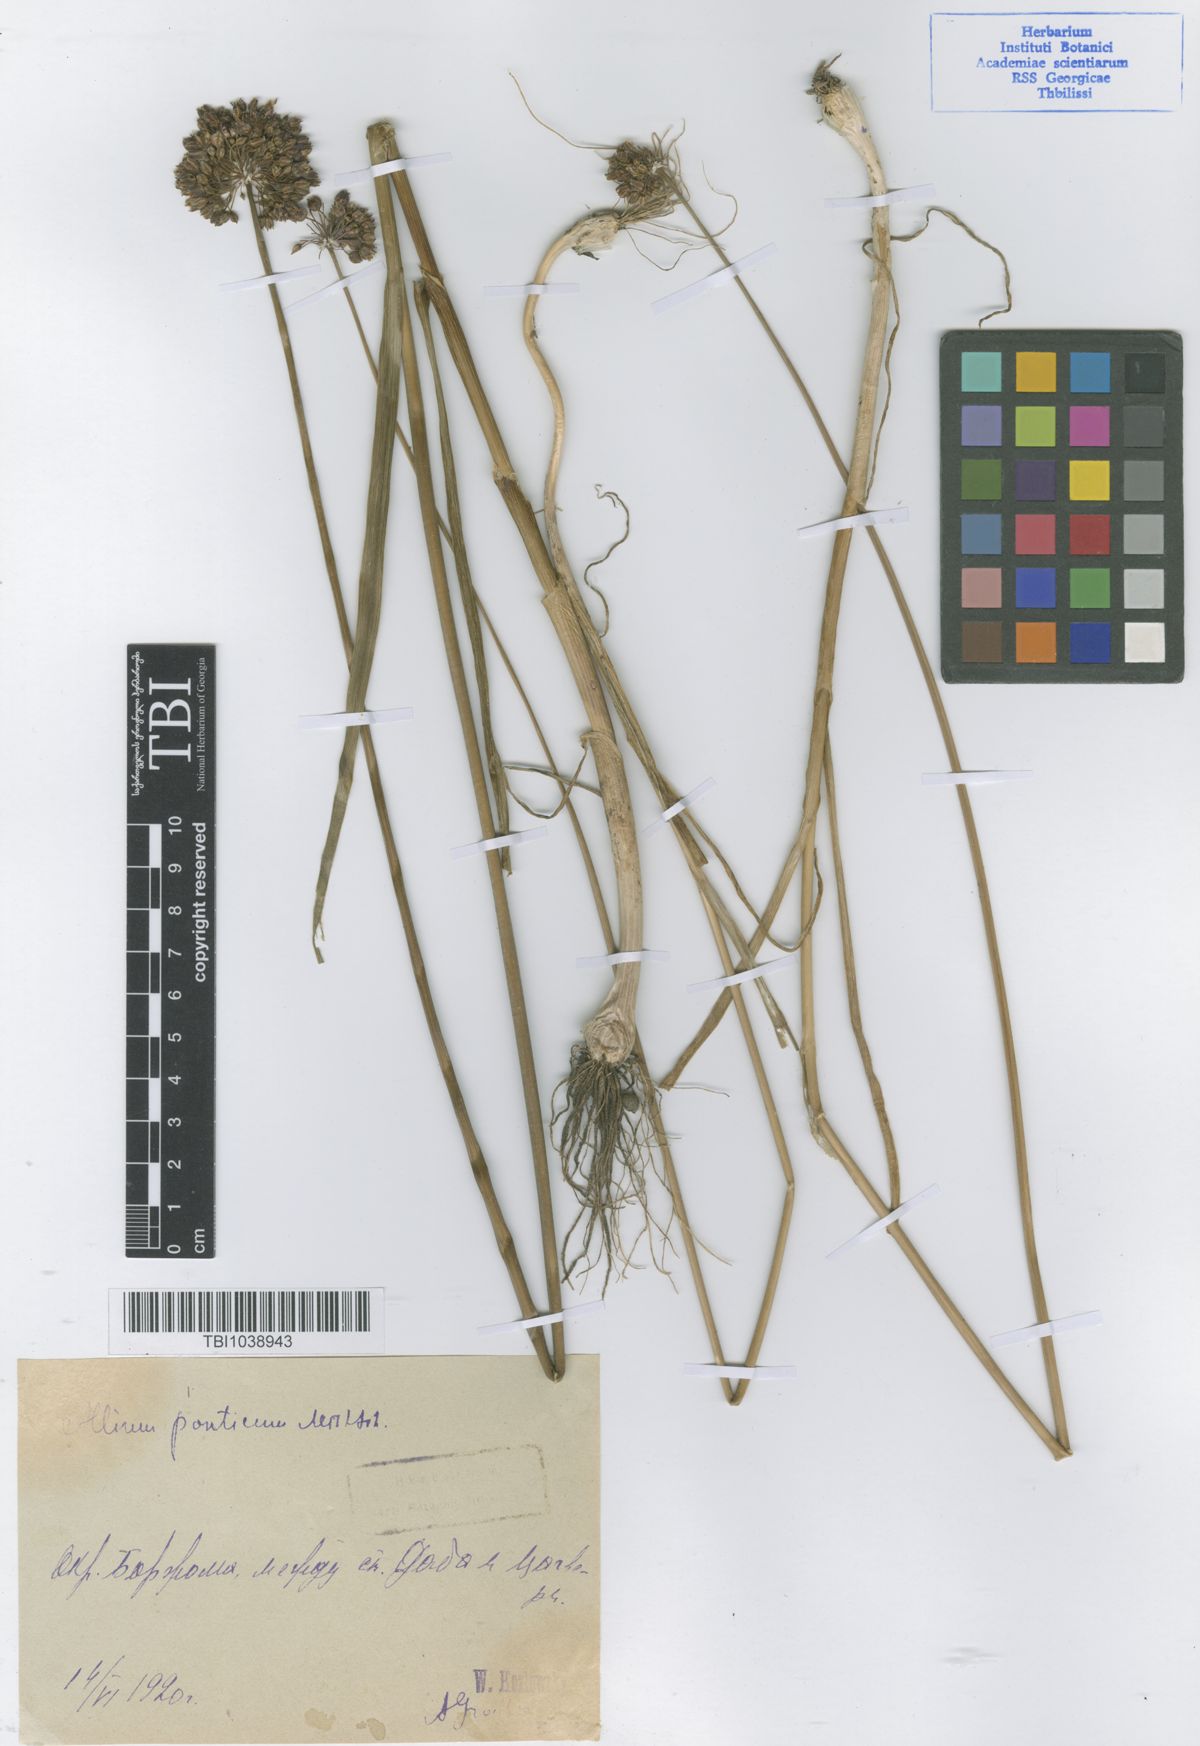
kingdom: Plantae
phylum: Tracheophyta
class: Liliopsida
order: Asparagales
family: Amaryllidaceae
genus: Allium
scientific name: Allium ponticum
